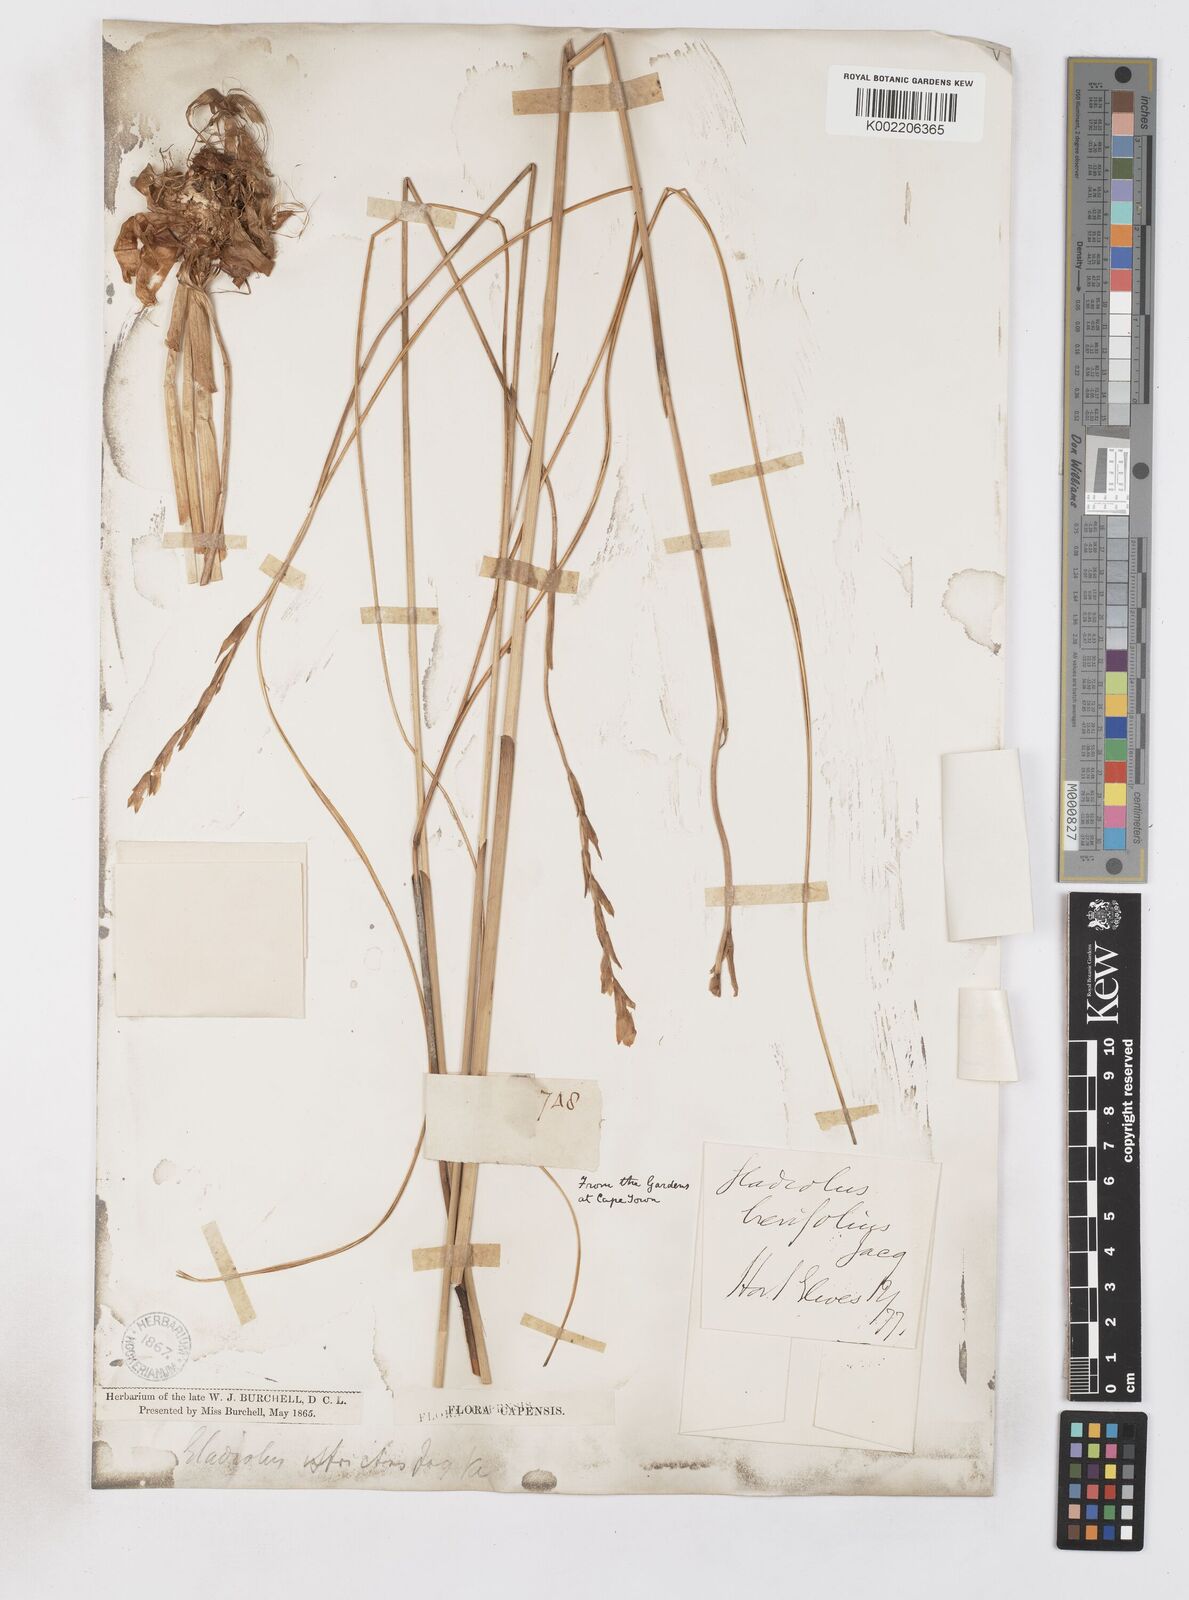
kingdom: Plantae
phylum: Tracheophyta
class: Liliopsida
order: Asparagales
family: Iridaceae
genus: Gladiolus
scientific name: Gladiolus jonquilodorus
